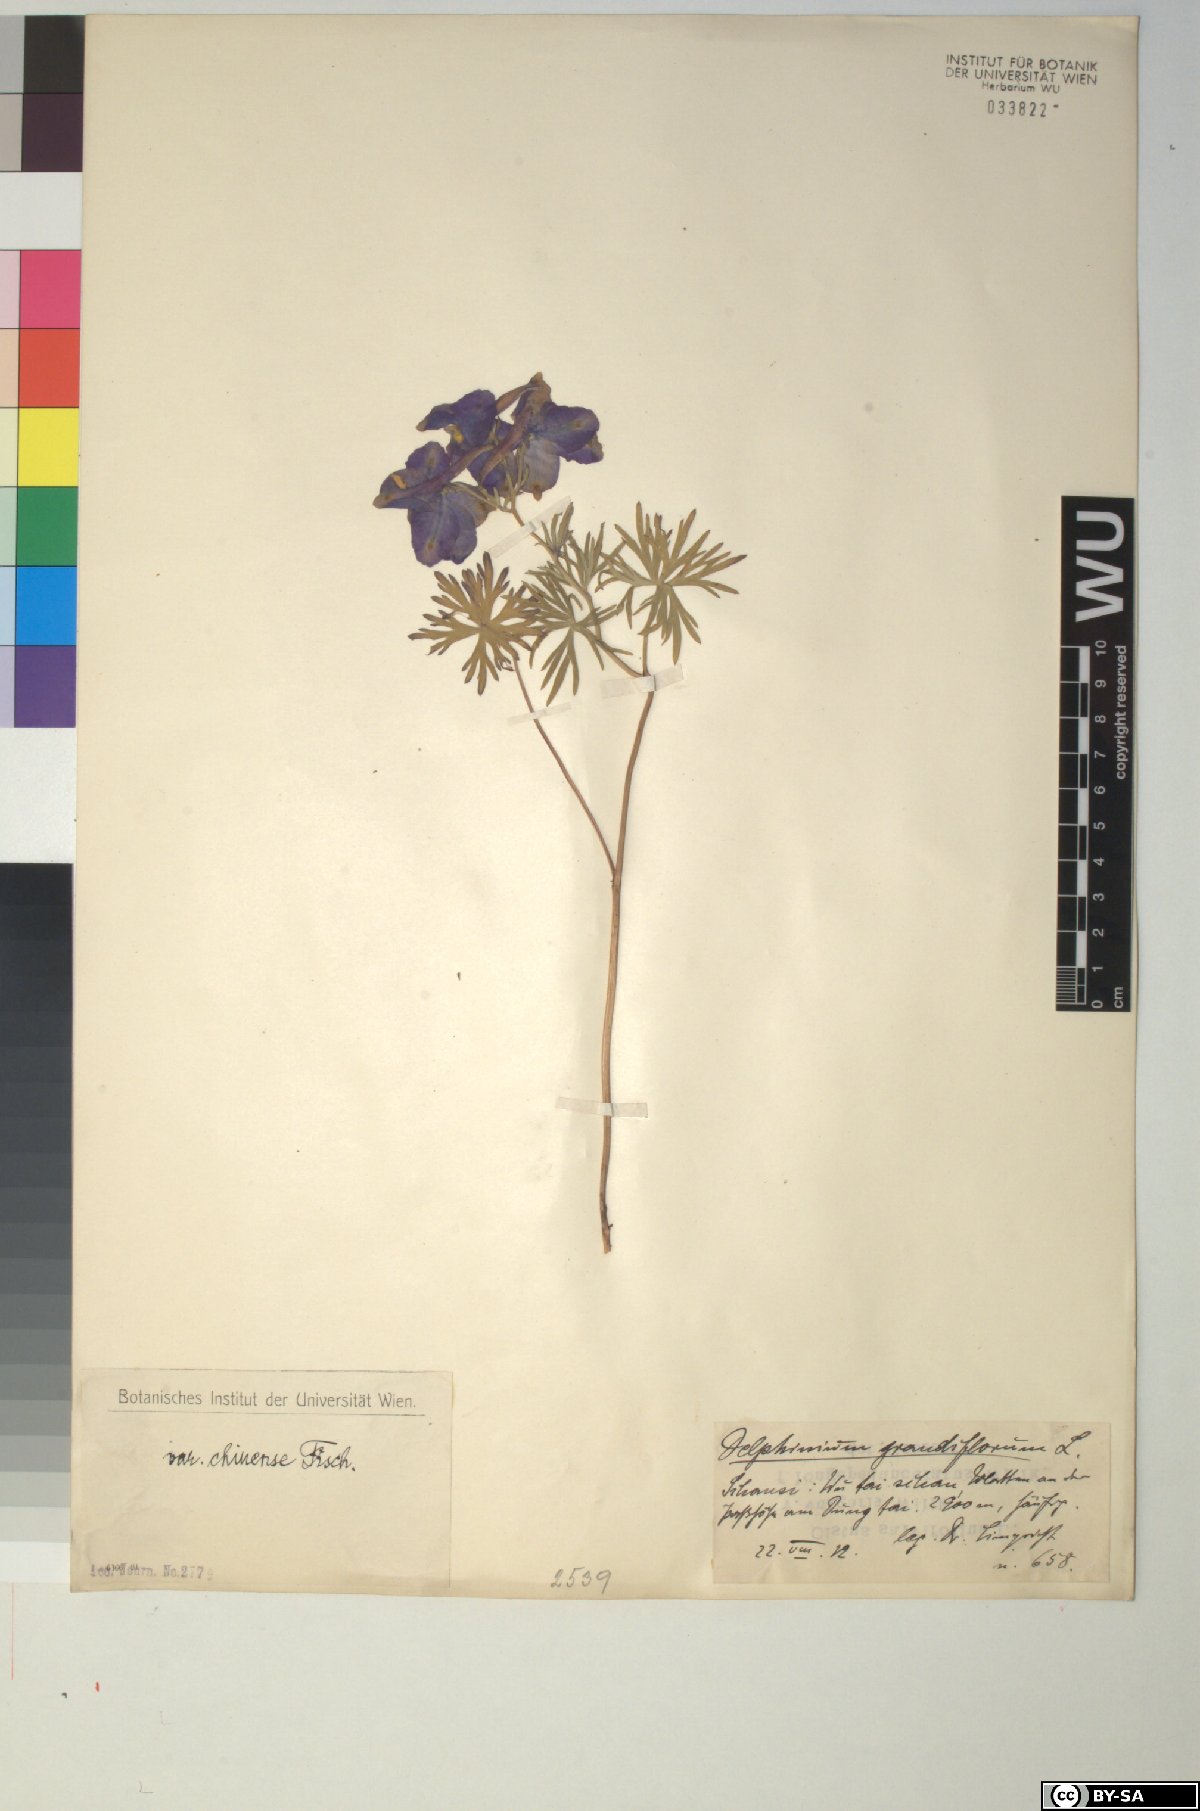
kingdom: Plantae
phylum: Tracheophyta
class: Magnoliopsida
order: Ranunculales
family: Ranunculaceae
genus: Delphinium
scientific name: Delphinium grandiflorum
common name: Siberian larkspur
